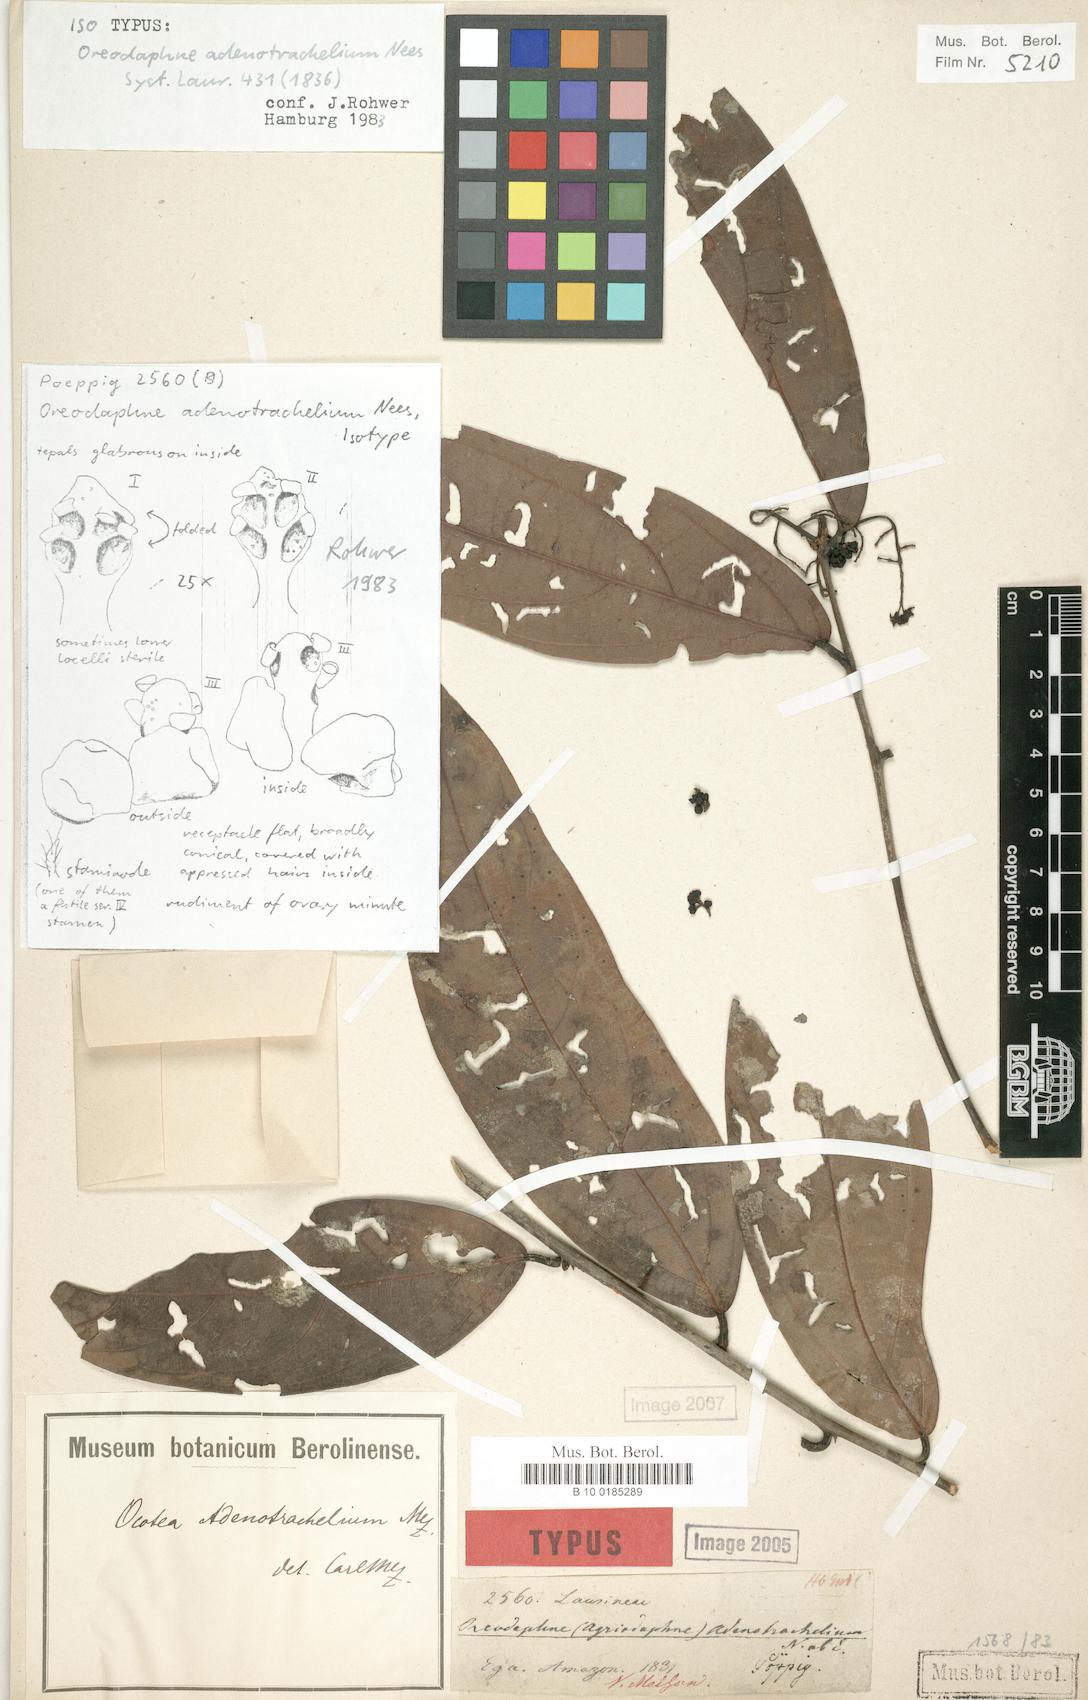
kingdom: Plantae
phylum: Tracheophyta
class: Magnoliopsida
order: Laurales
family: Lauraceae
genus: Ocotea
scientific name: Ocotea adenotrachelium
